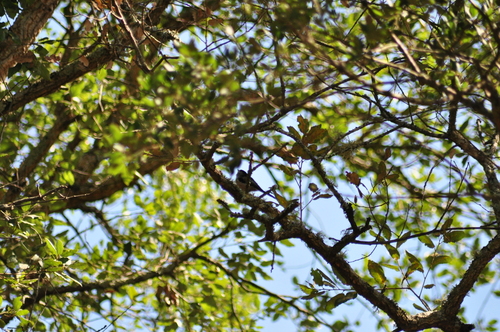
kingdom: Animalia
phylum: Chordata
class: Aves
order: Passeriformes
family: Aegithalidae
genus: Aegithalos
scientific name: Aegithalos caudatus
